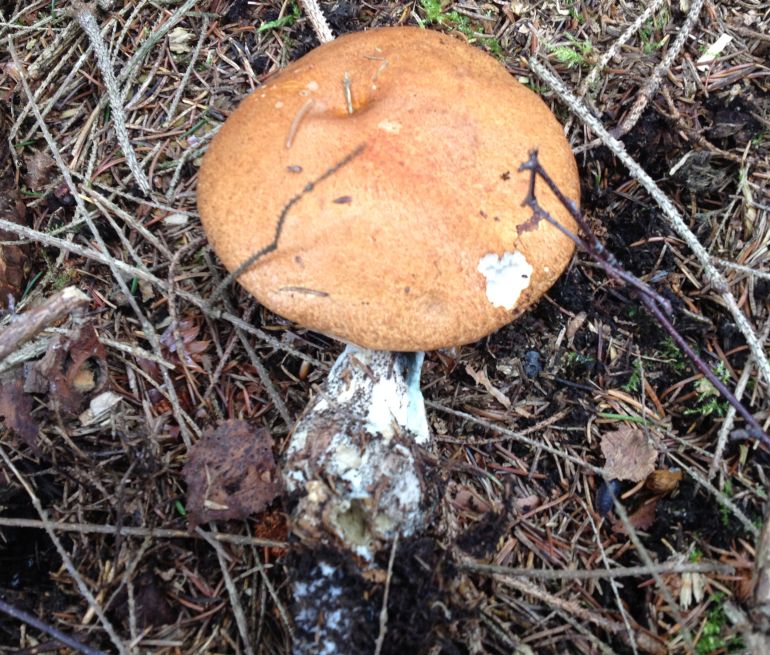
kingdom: Fungi
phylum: Basidiomycota
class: Agaricomycetes
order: Boletales
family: Boletaceae
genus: Leccinum
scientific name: Leccinum versipelle
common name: orange skælrørhat
